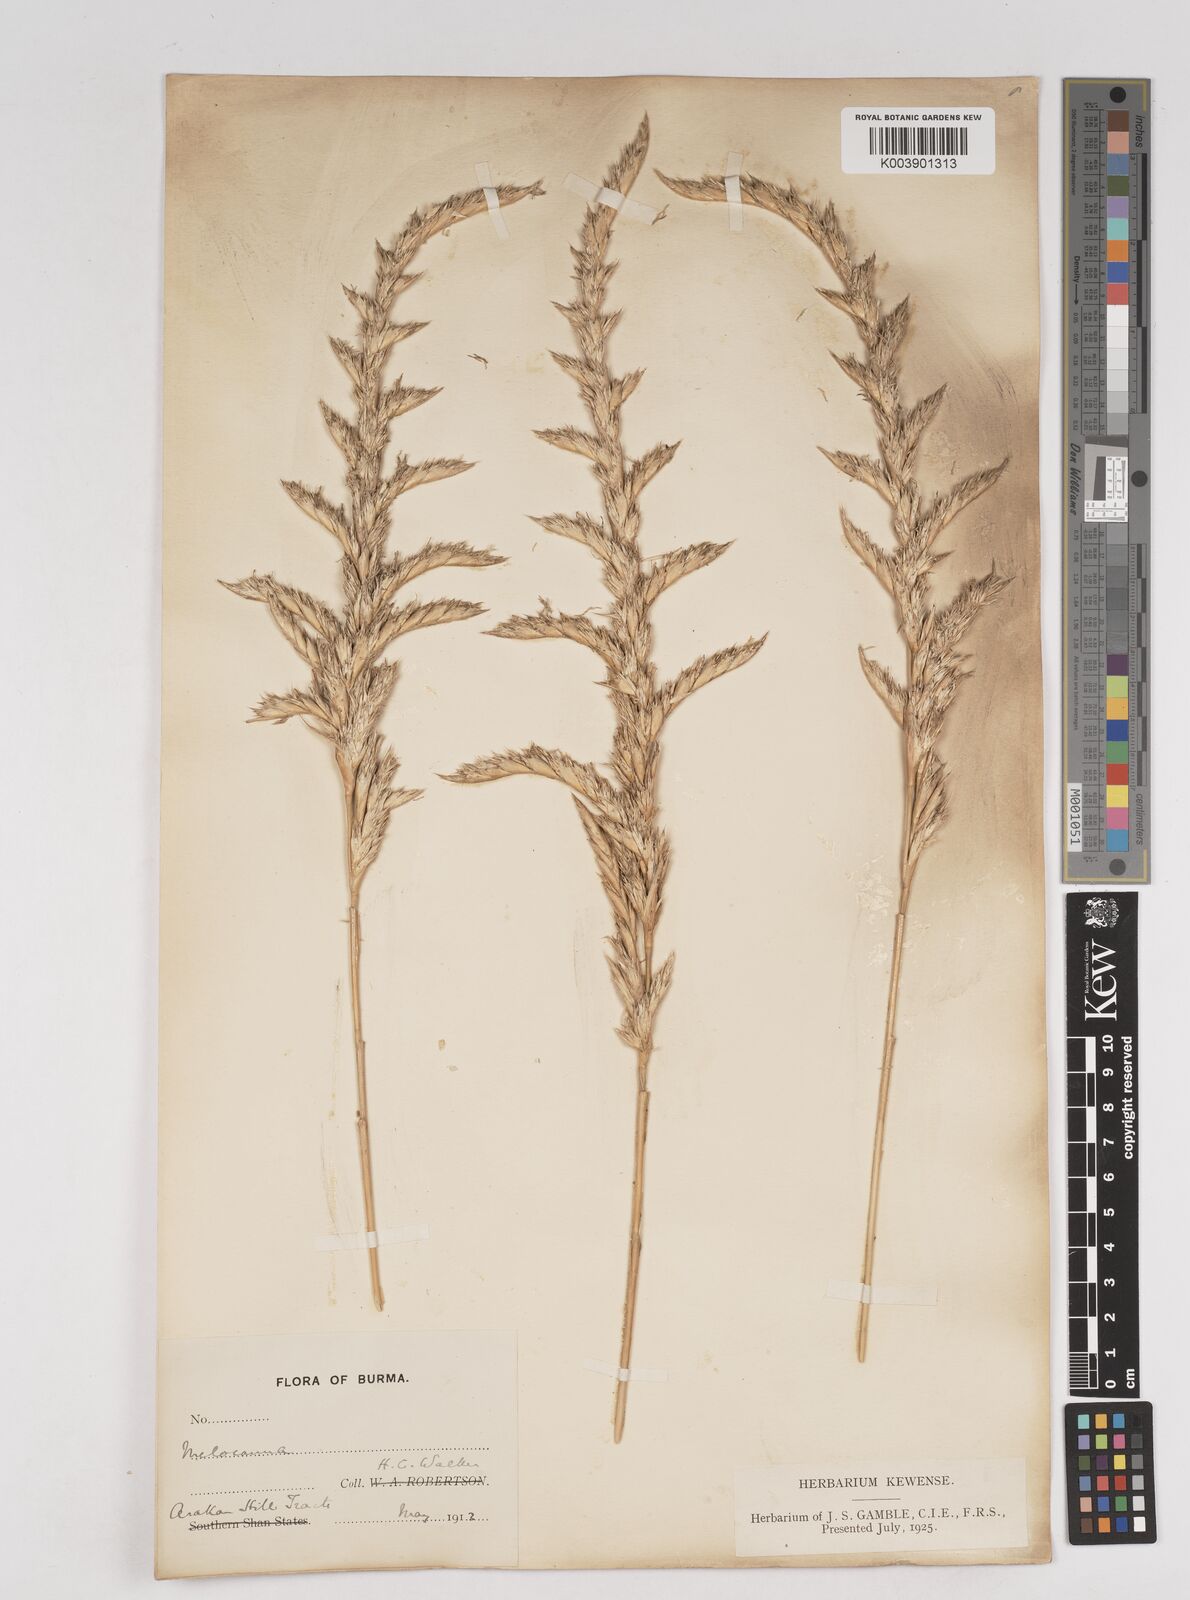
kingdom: Plantae
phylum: Tracheophyta
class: Liliopsida
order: Poales
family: Poaceae
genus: Melocanna
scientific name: Melocanna
